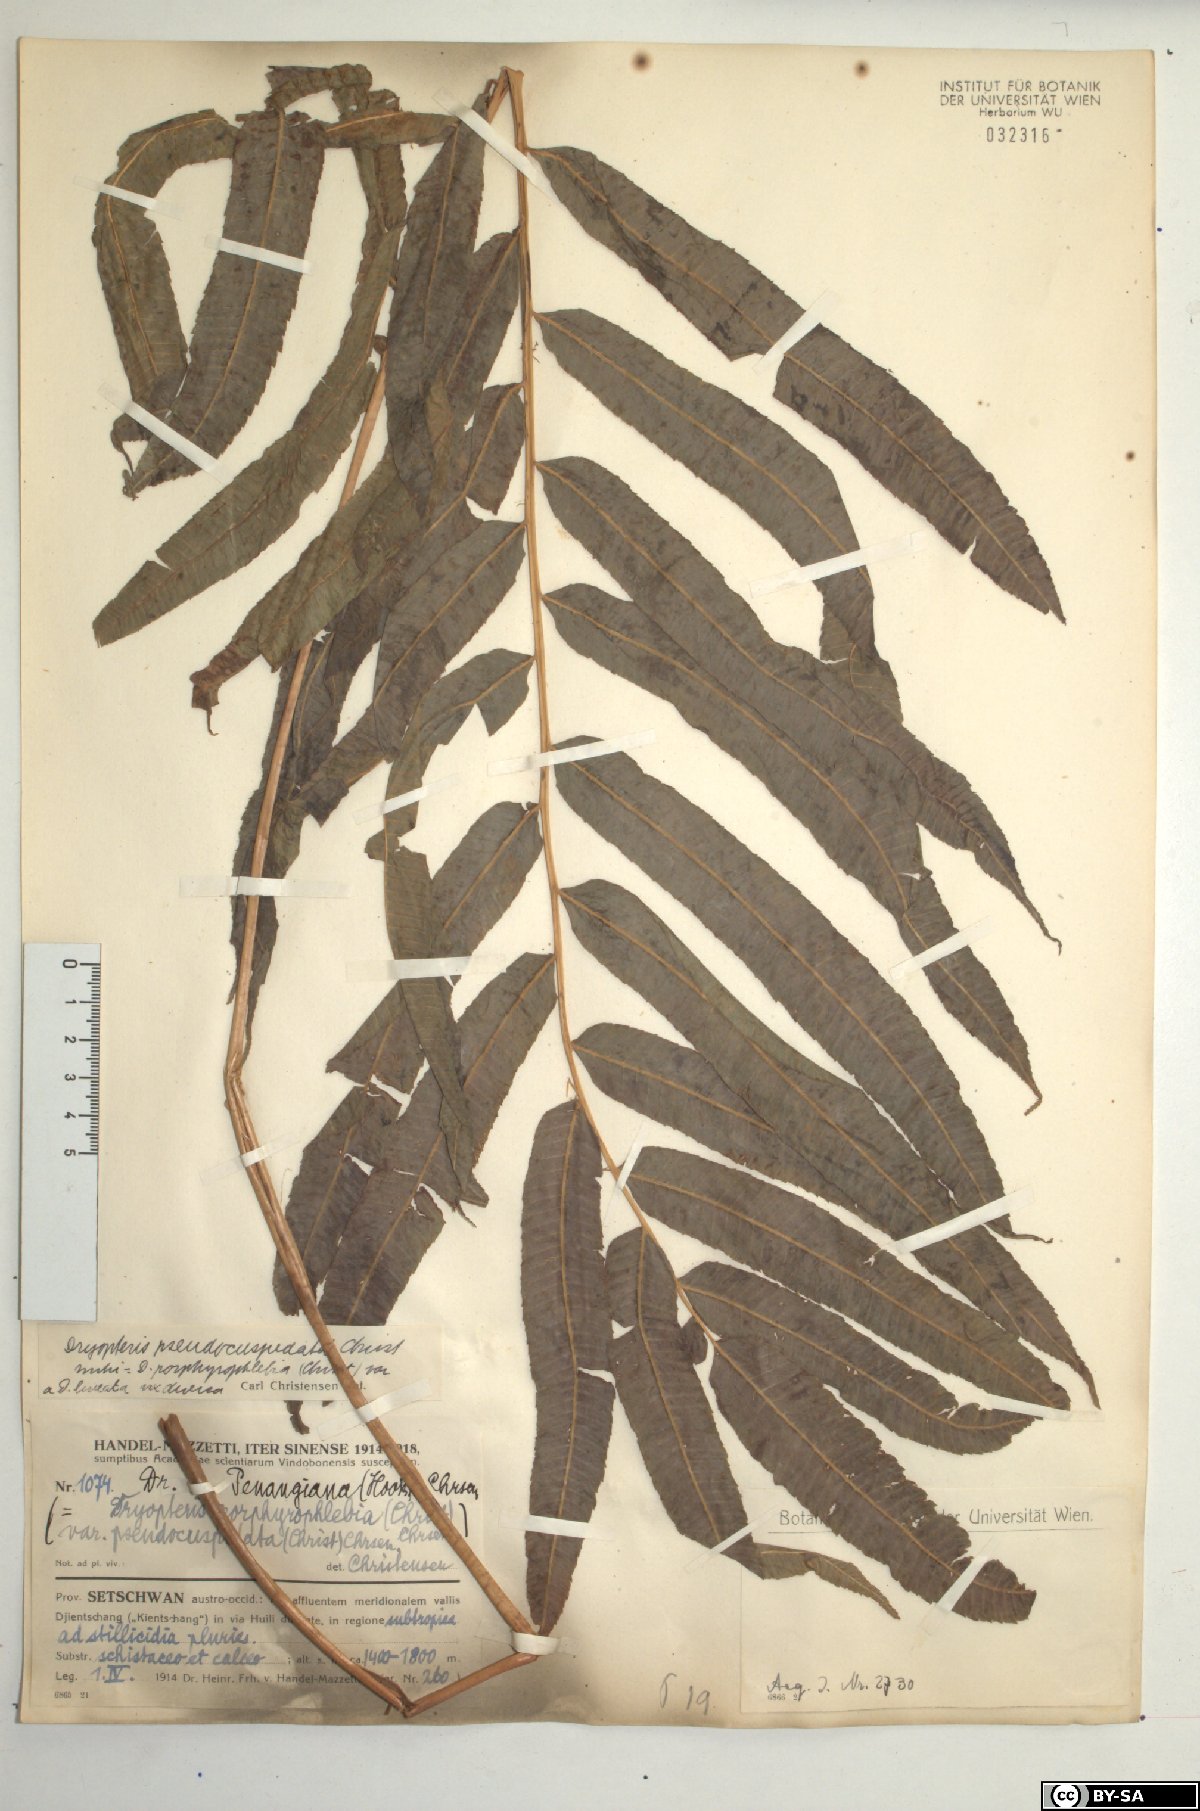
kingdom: Plantae
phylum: Tracheophyta
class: Polypodiopsida
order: Polypodiales
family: Thelypteridaceae
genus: Menisciopsis
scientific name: Menisciopsis penangiana
